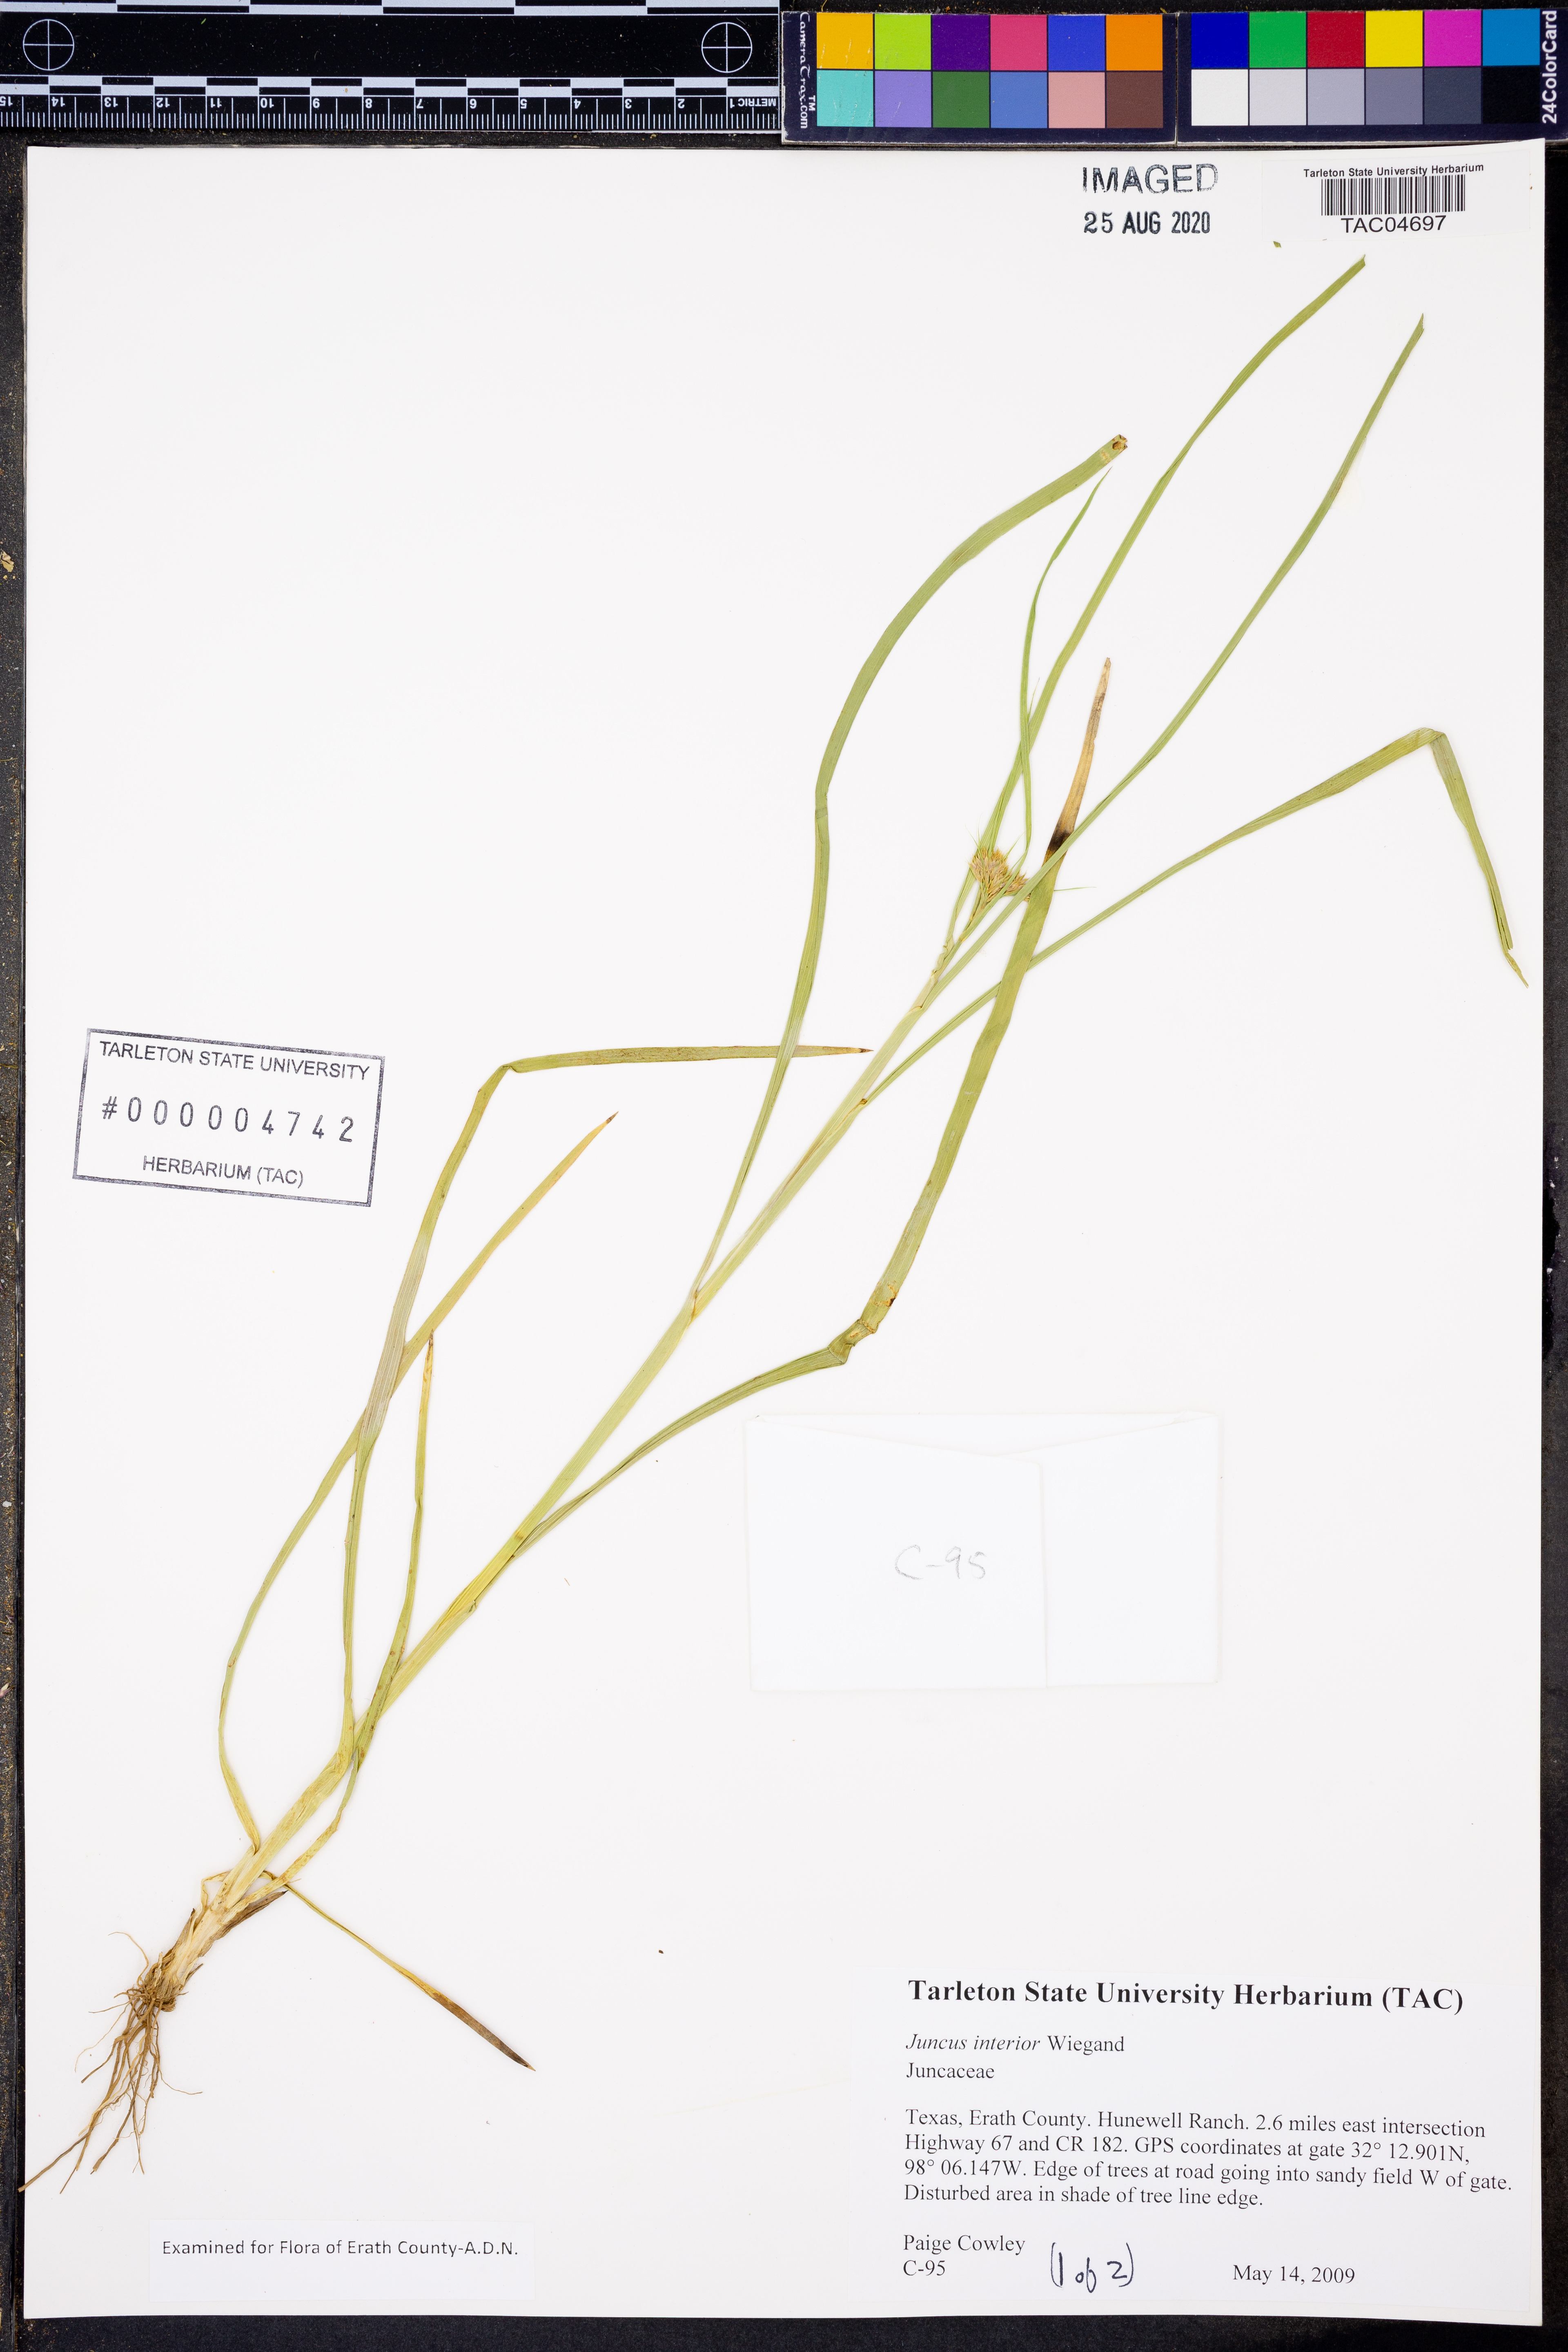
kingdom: Plantae
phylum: Tracheophyta
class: Liliopsida
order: Poales
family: Juncaceae
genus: Juncus
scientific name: Juncus interior
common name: Interior rush
